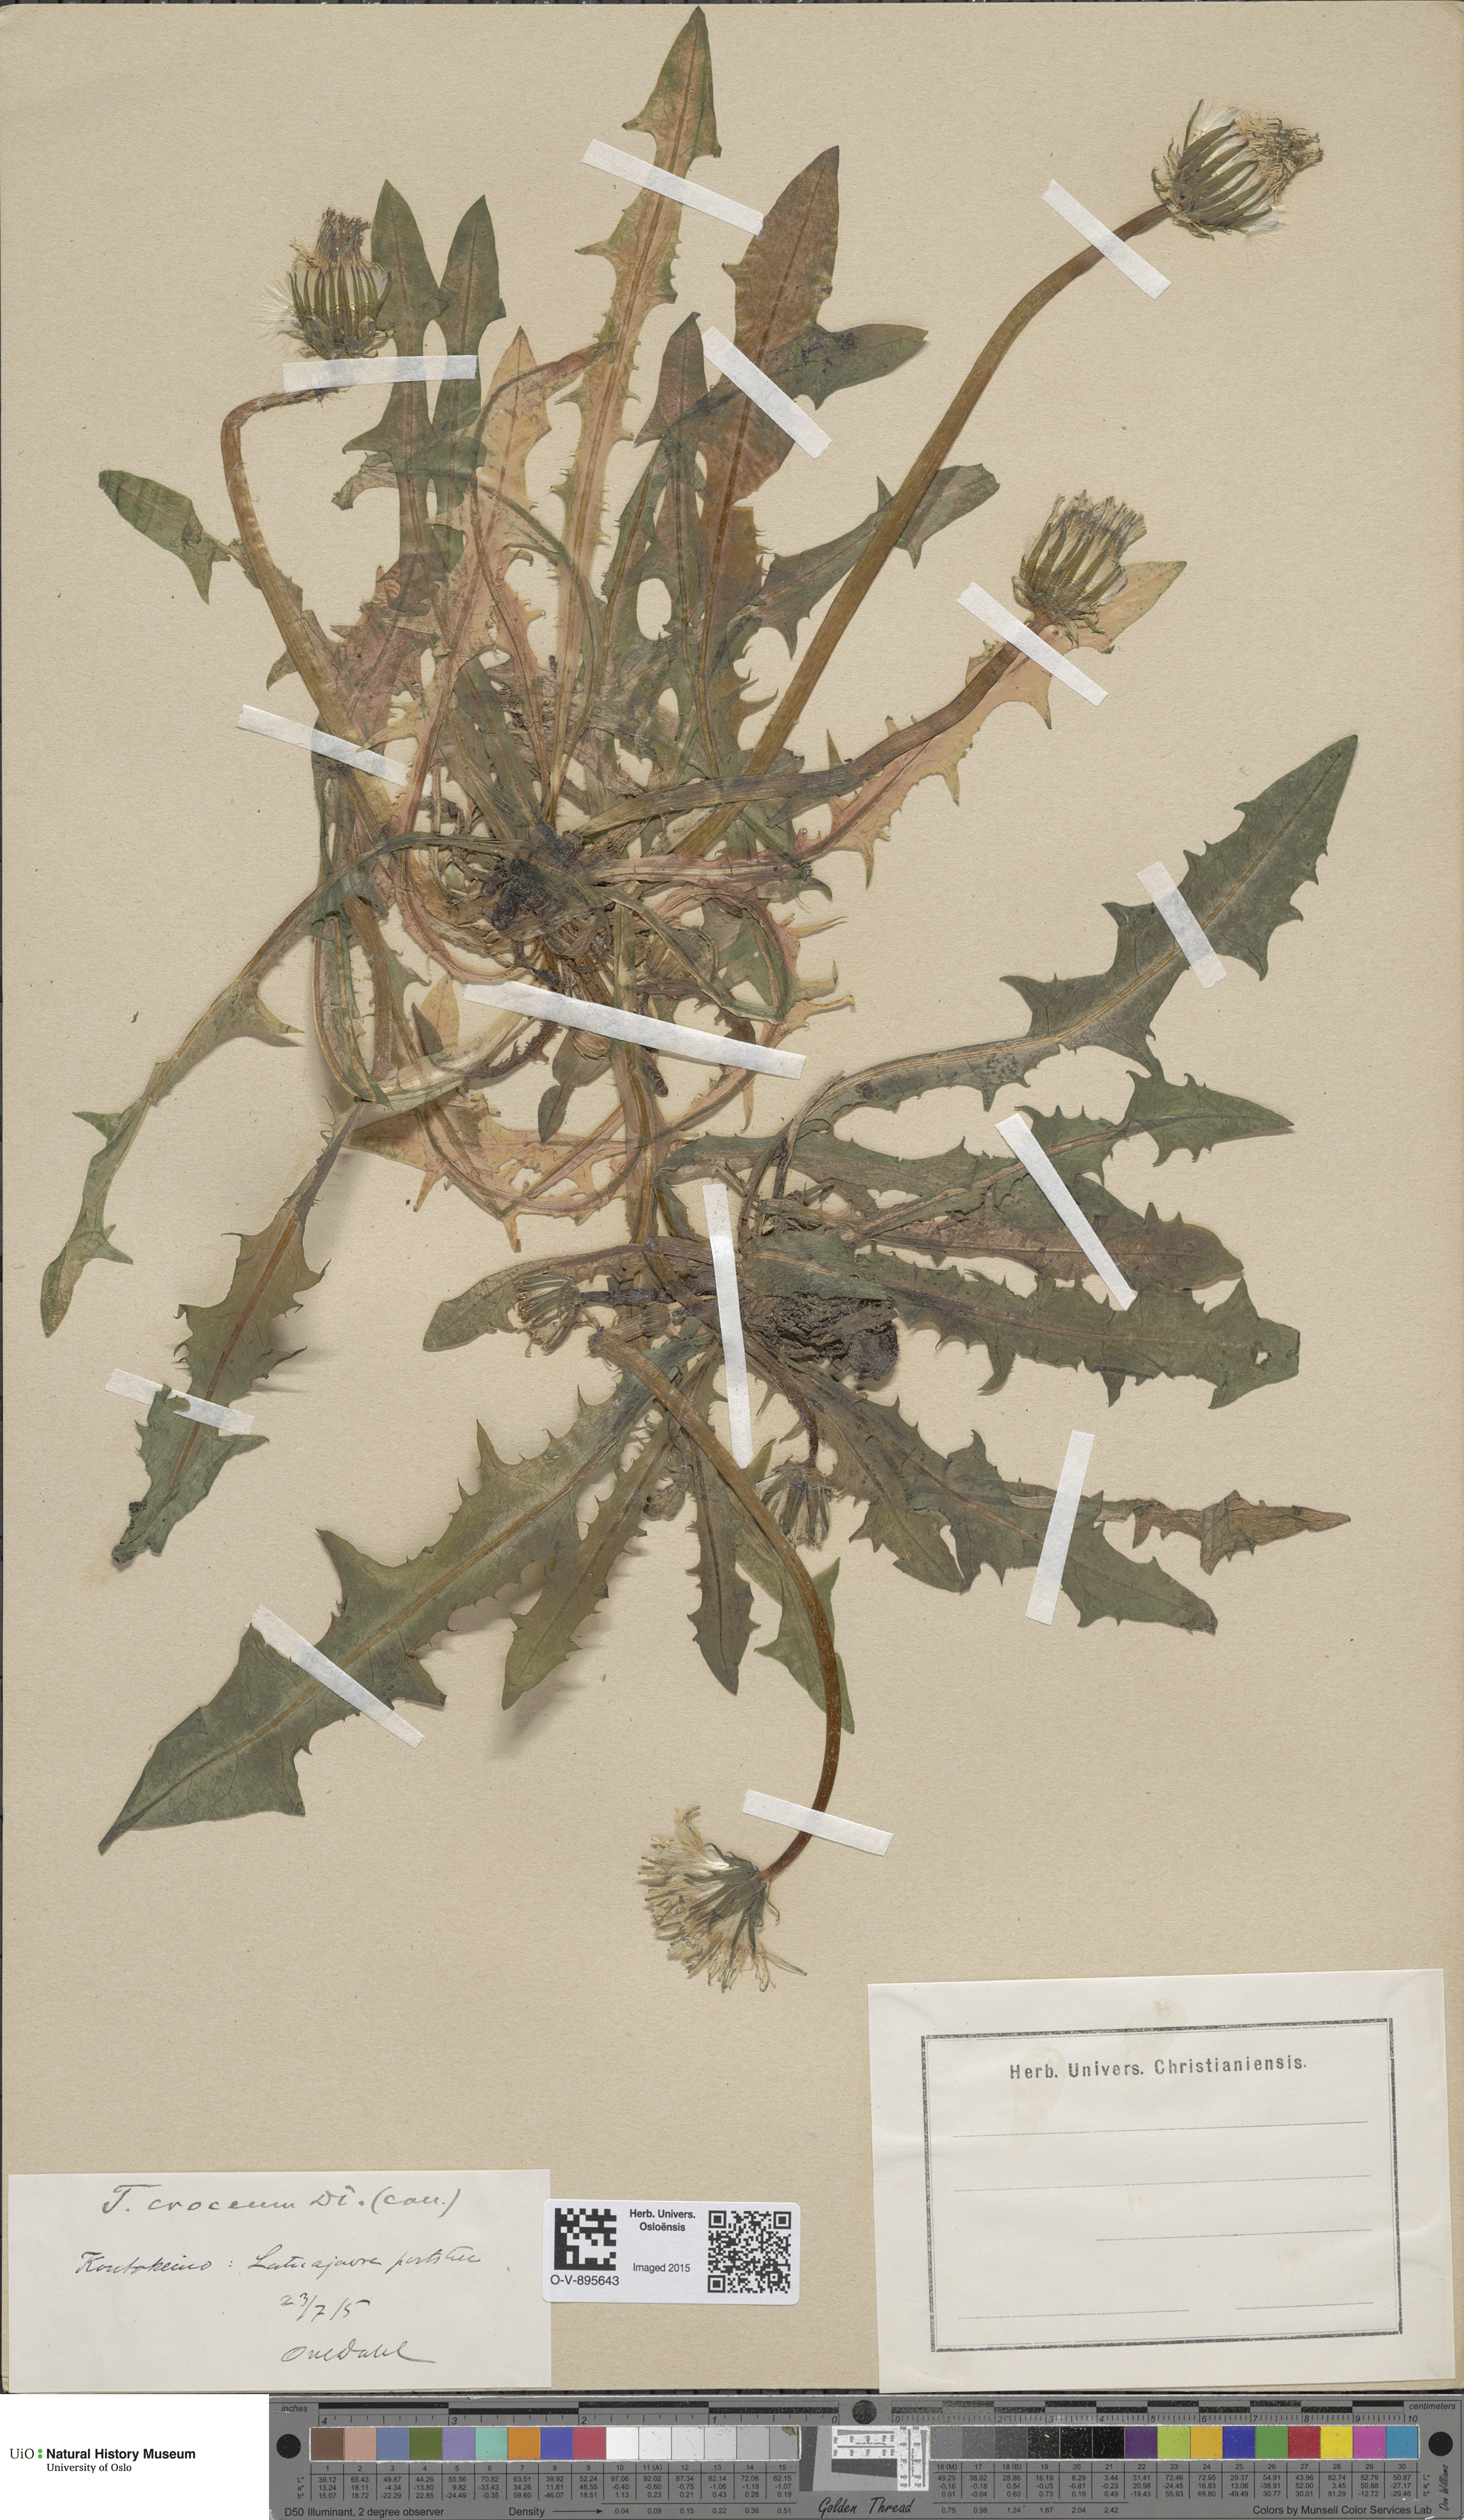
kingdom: Plantae
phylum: Tracheophyta
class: Magnoliopsida
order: Asterales
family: Asteraceae
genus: Taraxacum
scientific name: Taraxacum croceum
